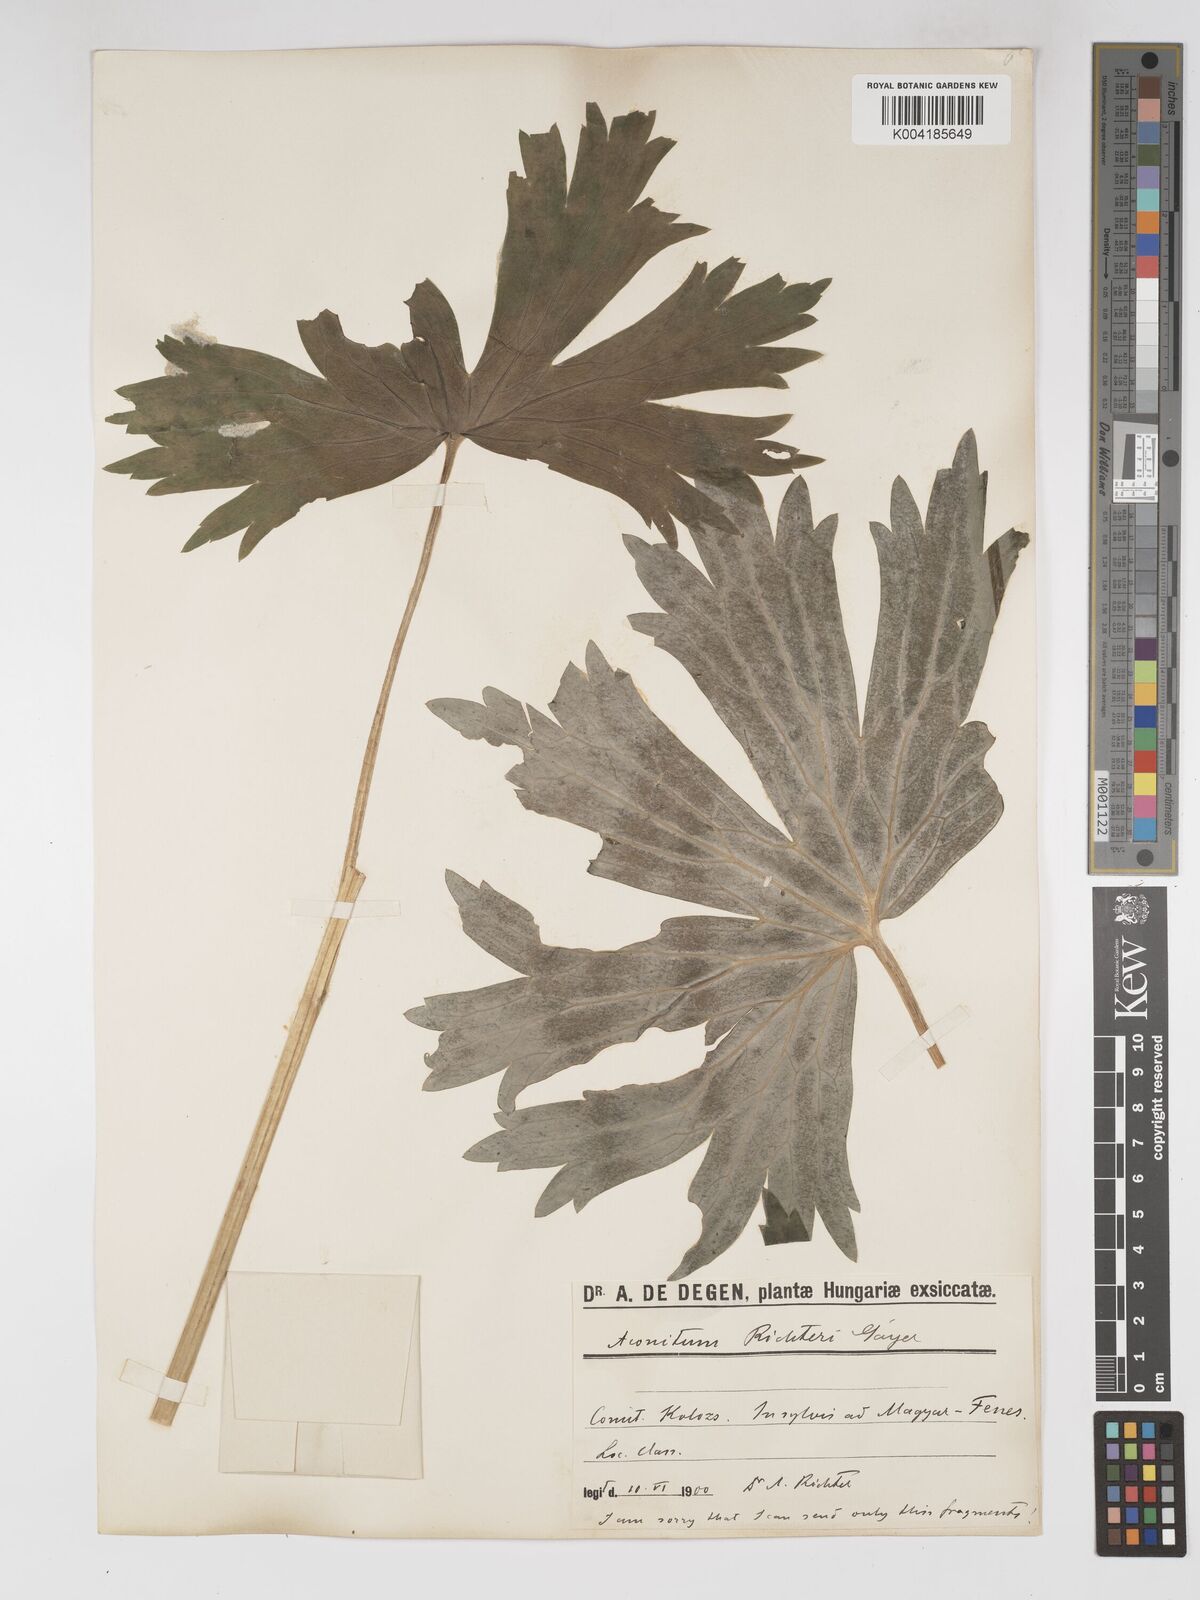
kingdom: Plantae
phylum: Tracheophyta
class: Magnoliopsida
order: Ranunculales
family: Ranunculaceae
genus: Aconitum
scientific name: Aconitum lycoctonum
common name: Wolf's-bane
